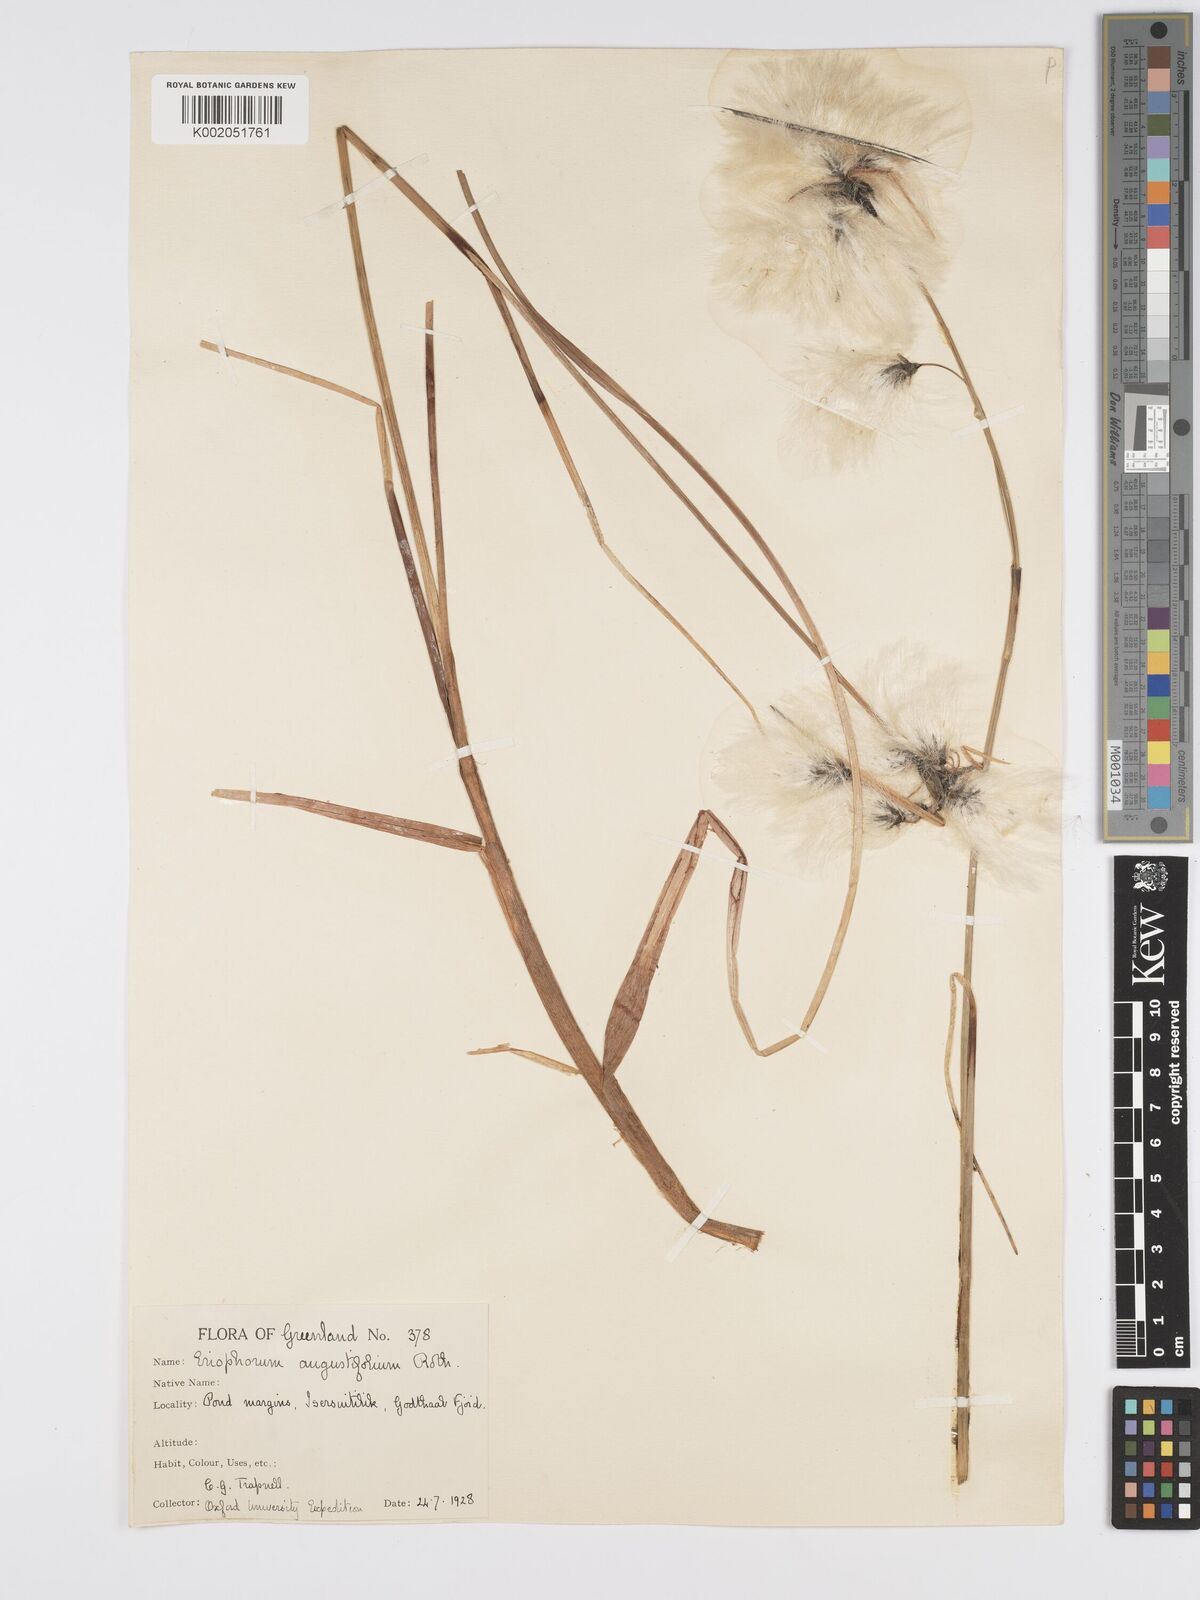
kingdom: Plantae
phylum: Tracheophyta
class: Liliopsida
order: Poales
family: Cyperaceae
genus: Eriophorum
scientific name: Eriophorum angustifolium
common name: Common cottongrass
